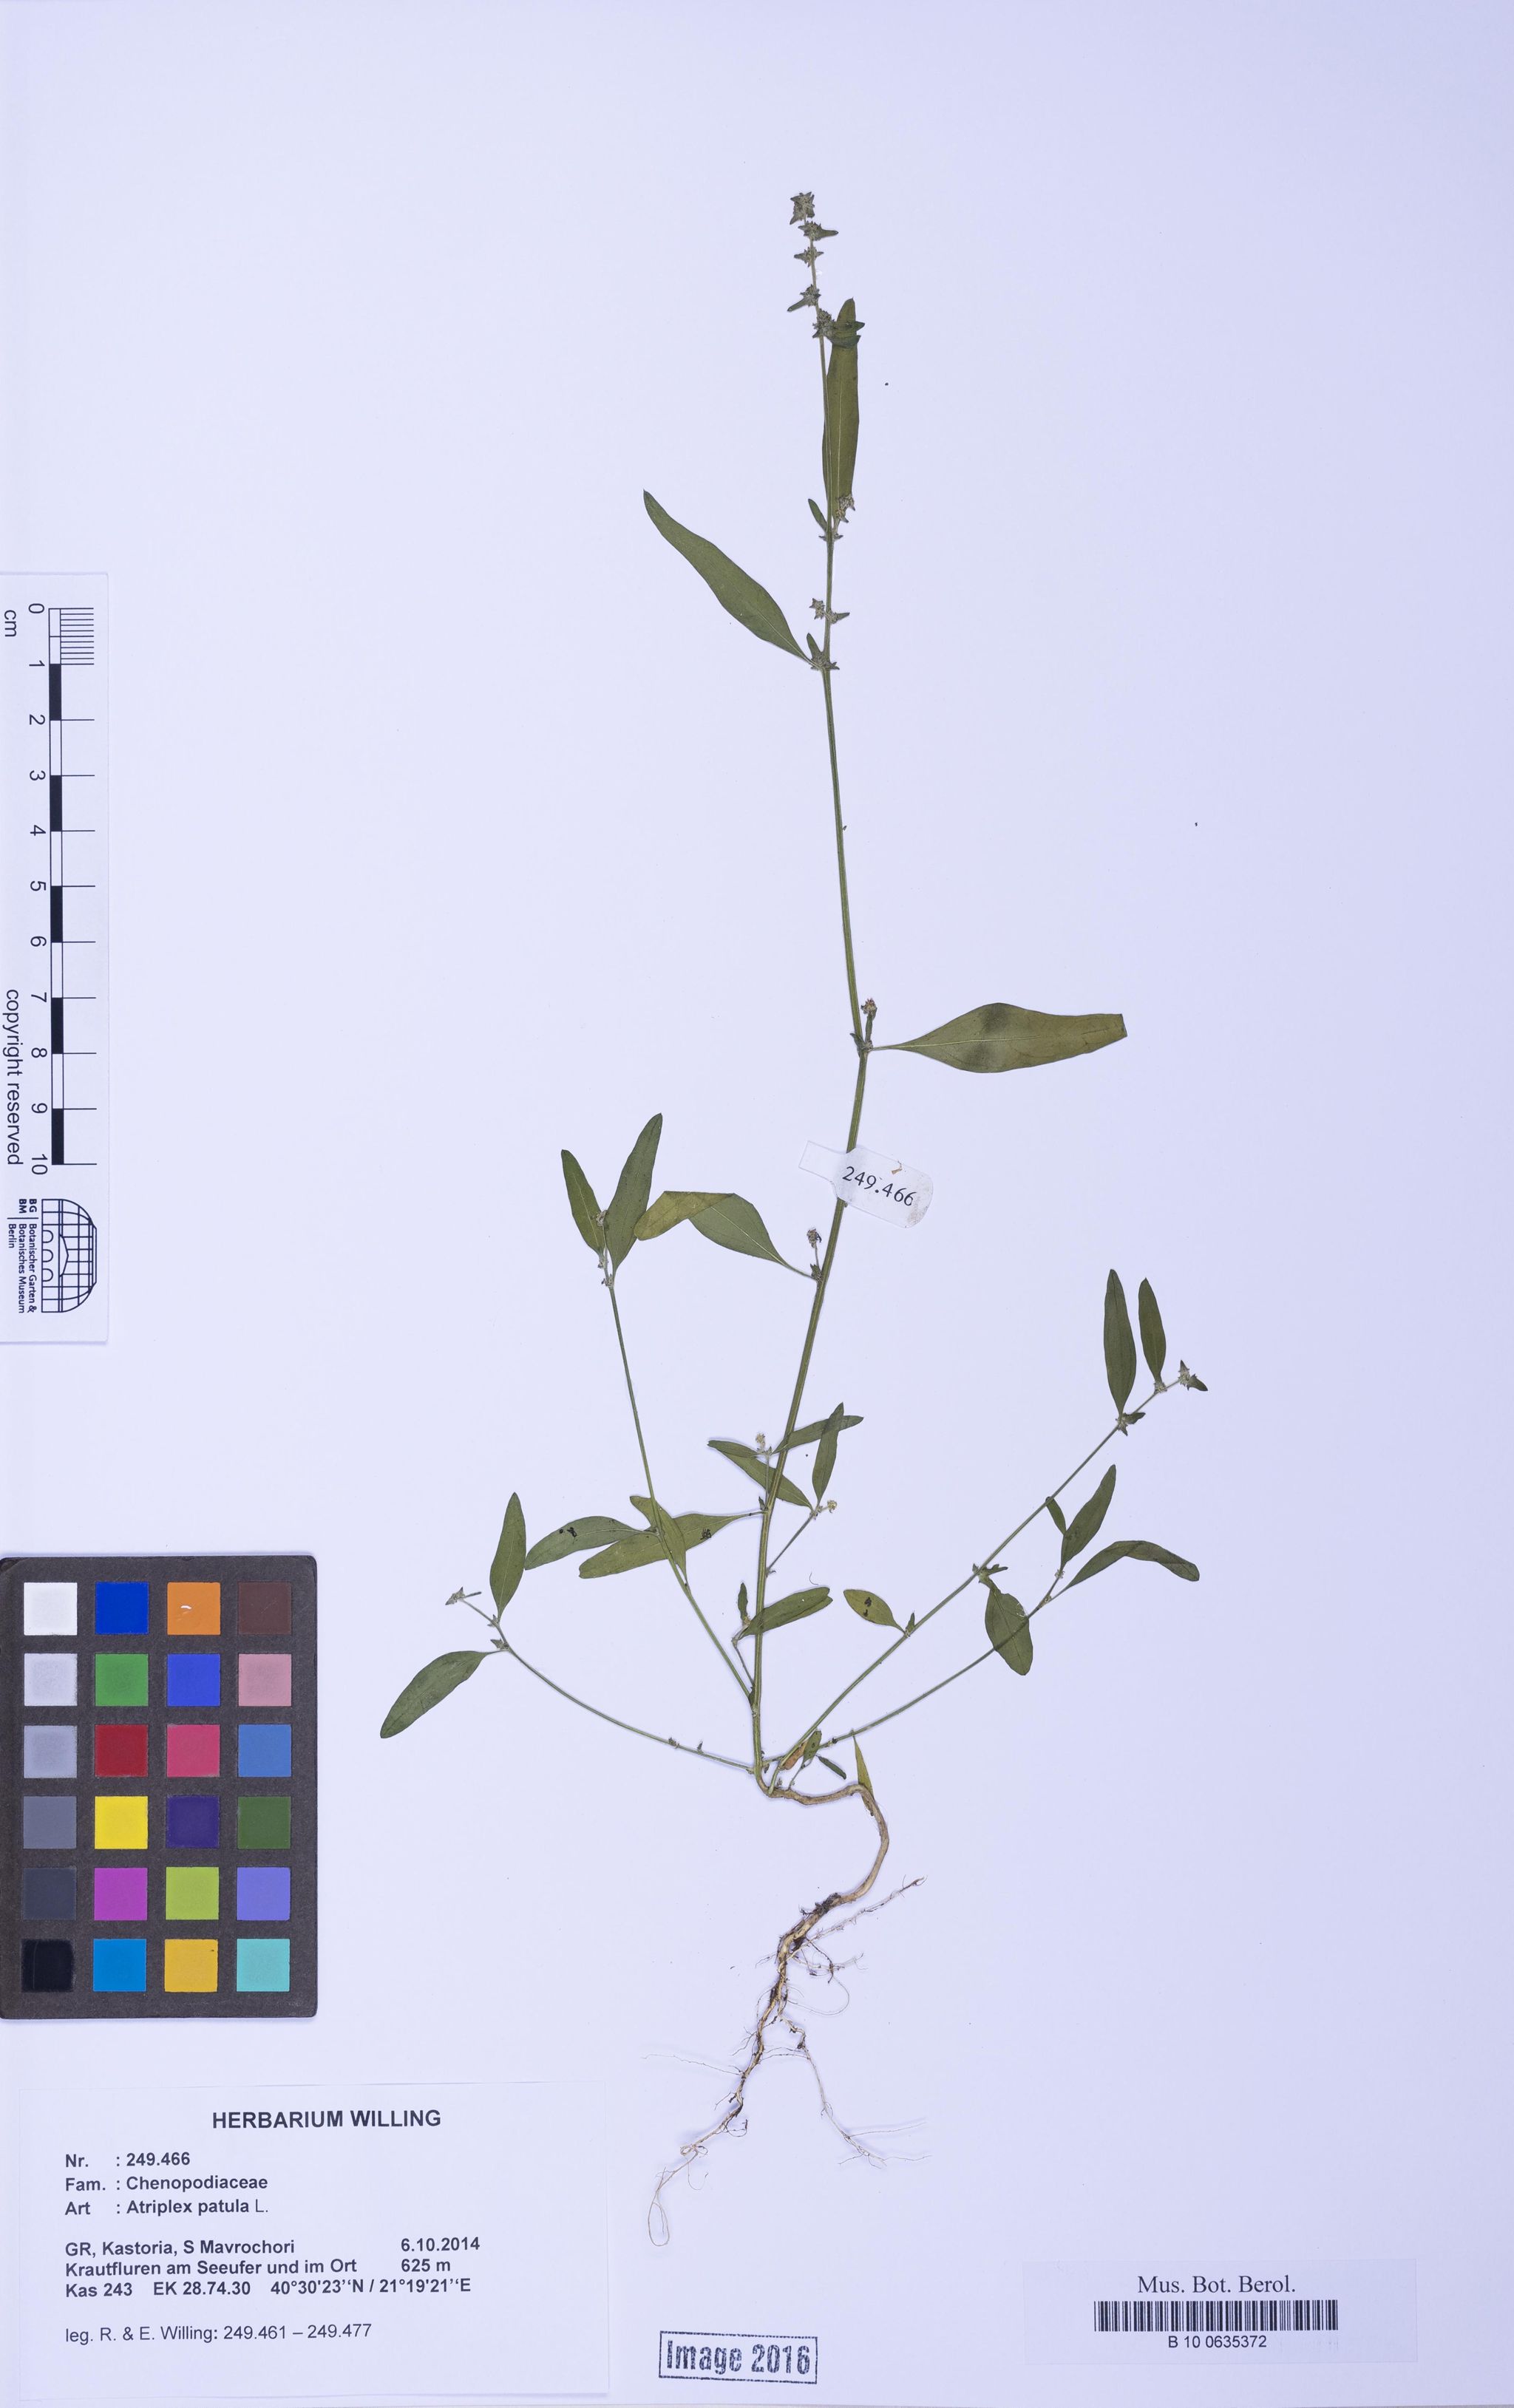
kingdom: Plantae
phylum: Tracheophyta
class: Magnoliopsida
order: Caryophyllales
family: Amaranthaceae
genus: Atriplex
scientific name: Atriplex patula
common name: Common orache
